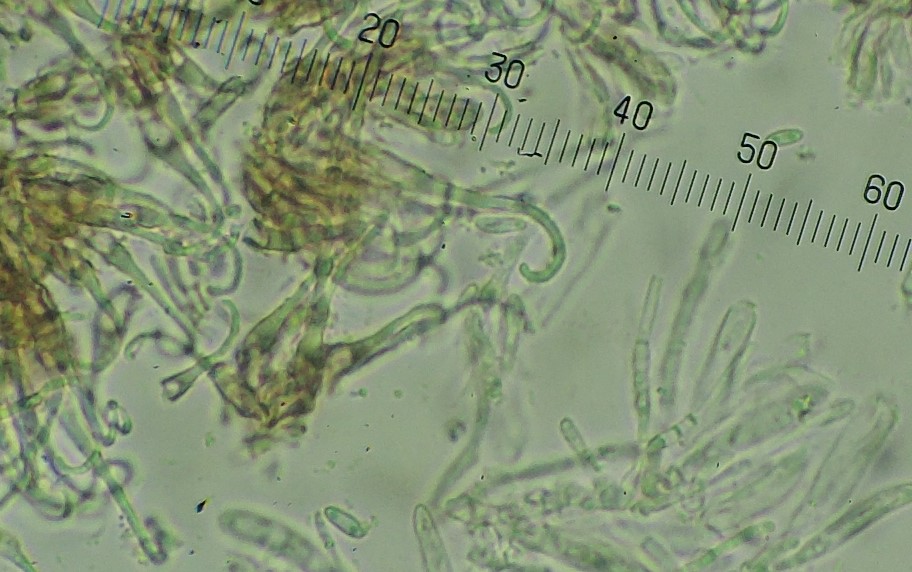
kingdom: Fungi
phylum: Ascomycota
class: Leotiomycetes
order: Helotiales
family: Hyaloscyphaceae
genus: Unguiculella
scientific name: Unguiculella robergei
